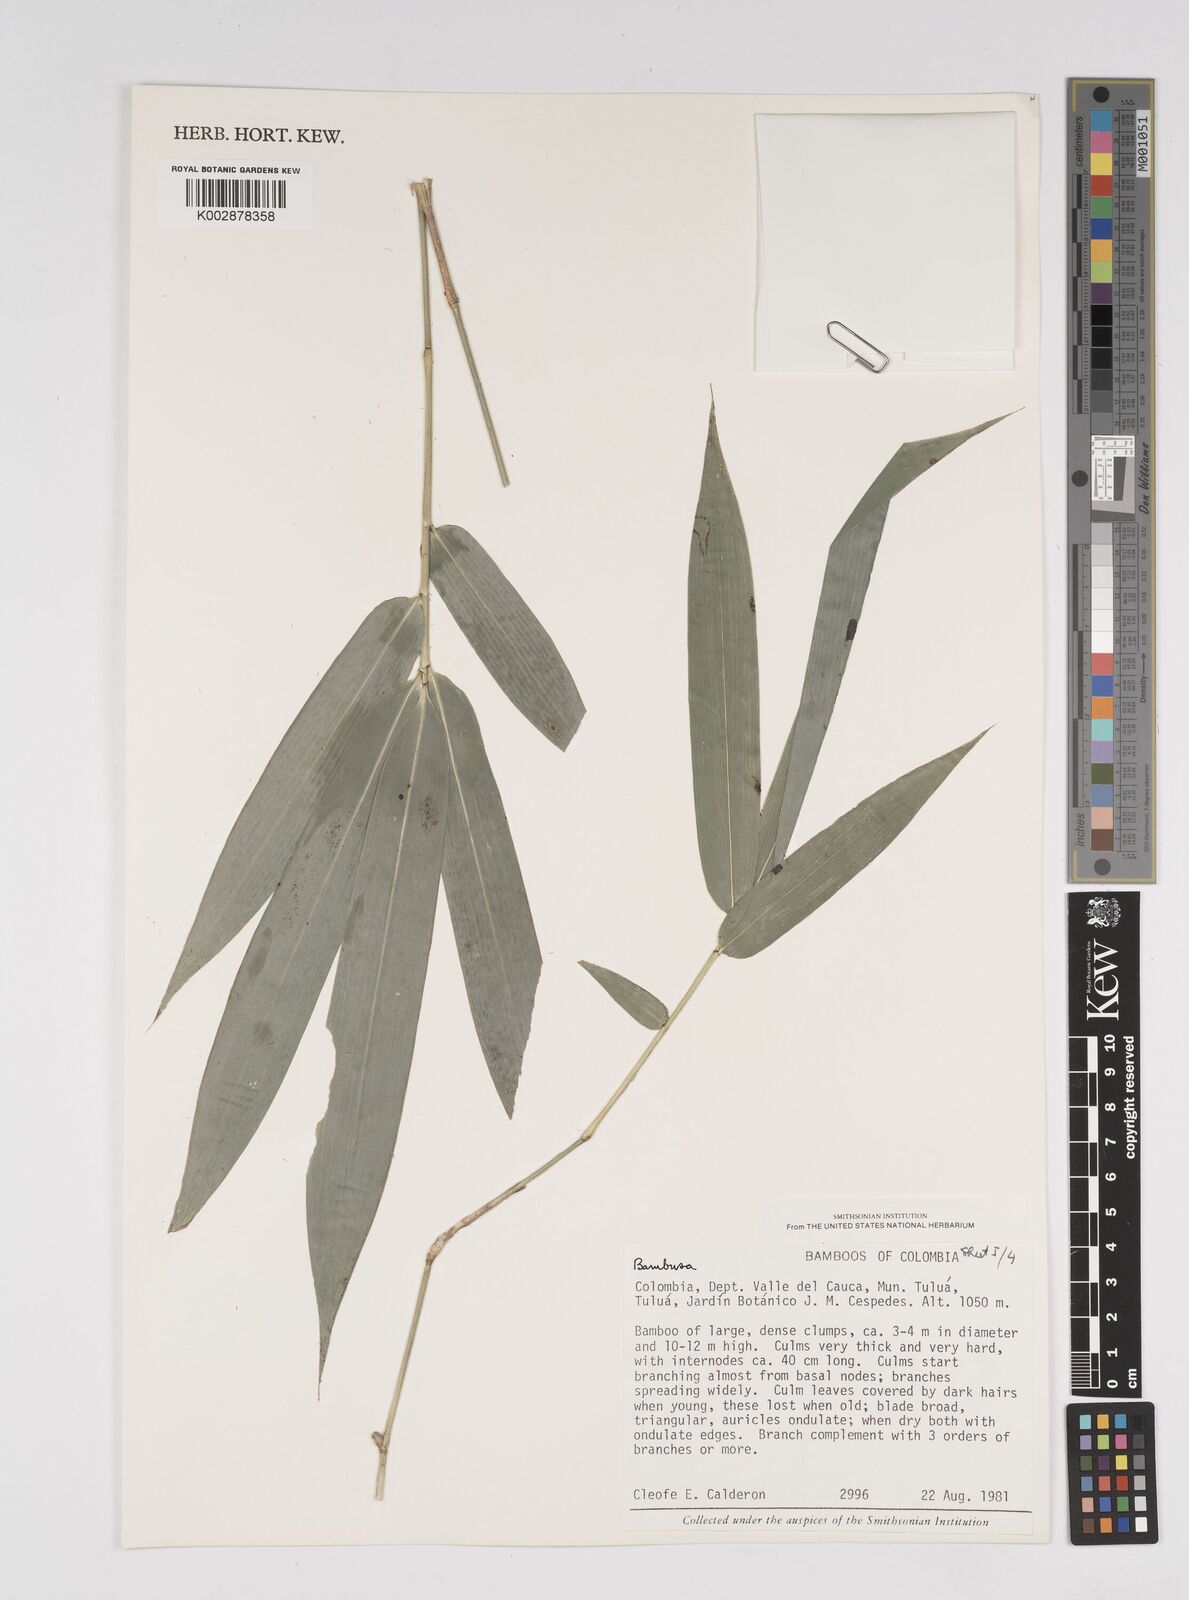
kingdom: Plantae
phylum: Tracheophyta
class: Liliopsida
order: Poales
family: Poaceae
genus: Bambusa
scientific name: Bambusa nutans
